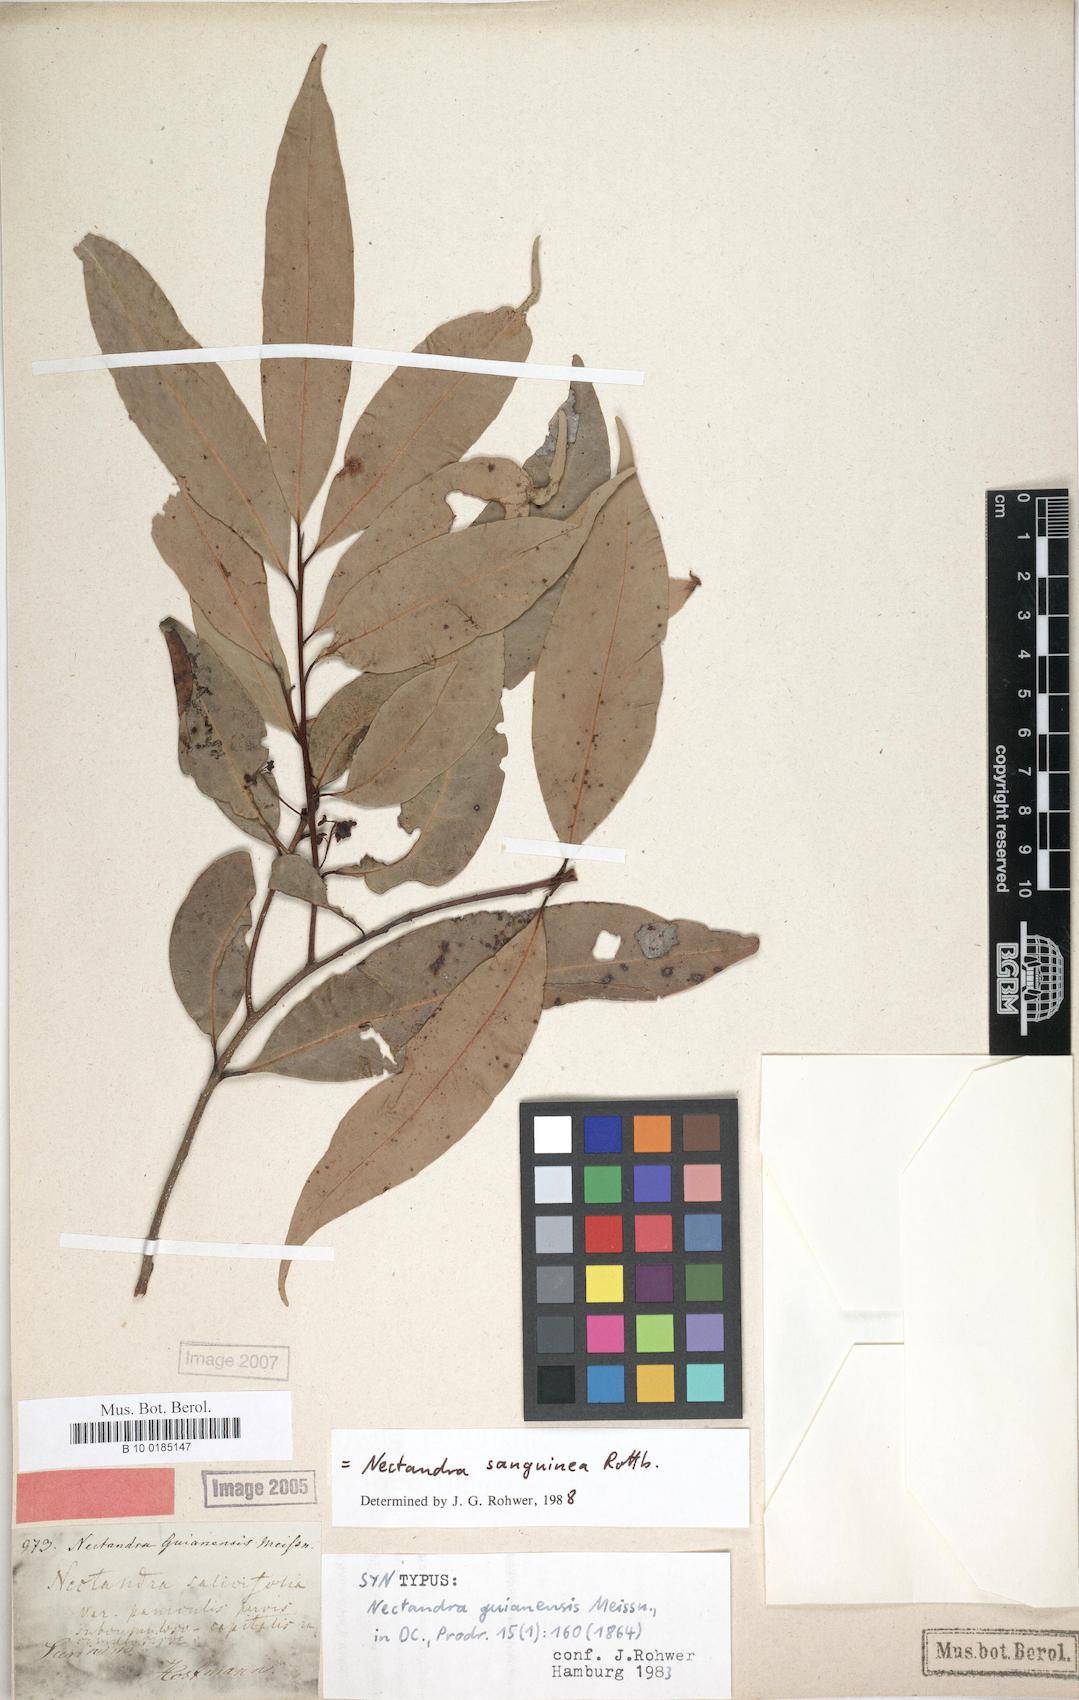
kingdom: Plantae
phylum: Tracheophyta
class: Magnoliopsida
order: Laurales
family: Lauraceae
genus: Nectandra
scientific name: Nectandra sanguinea
